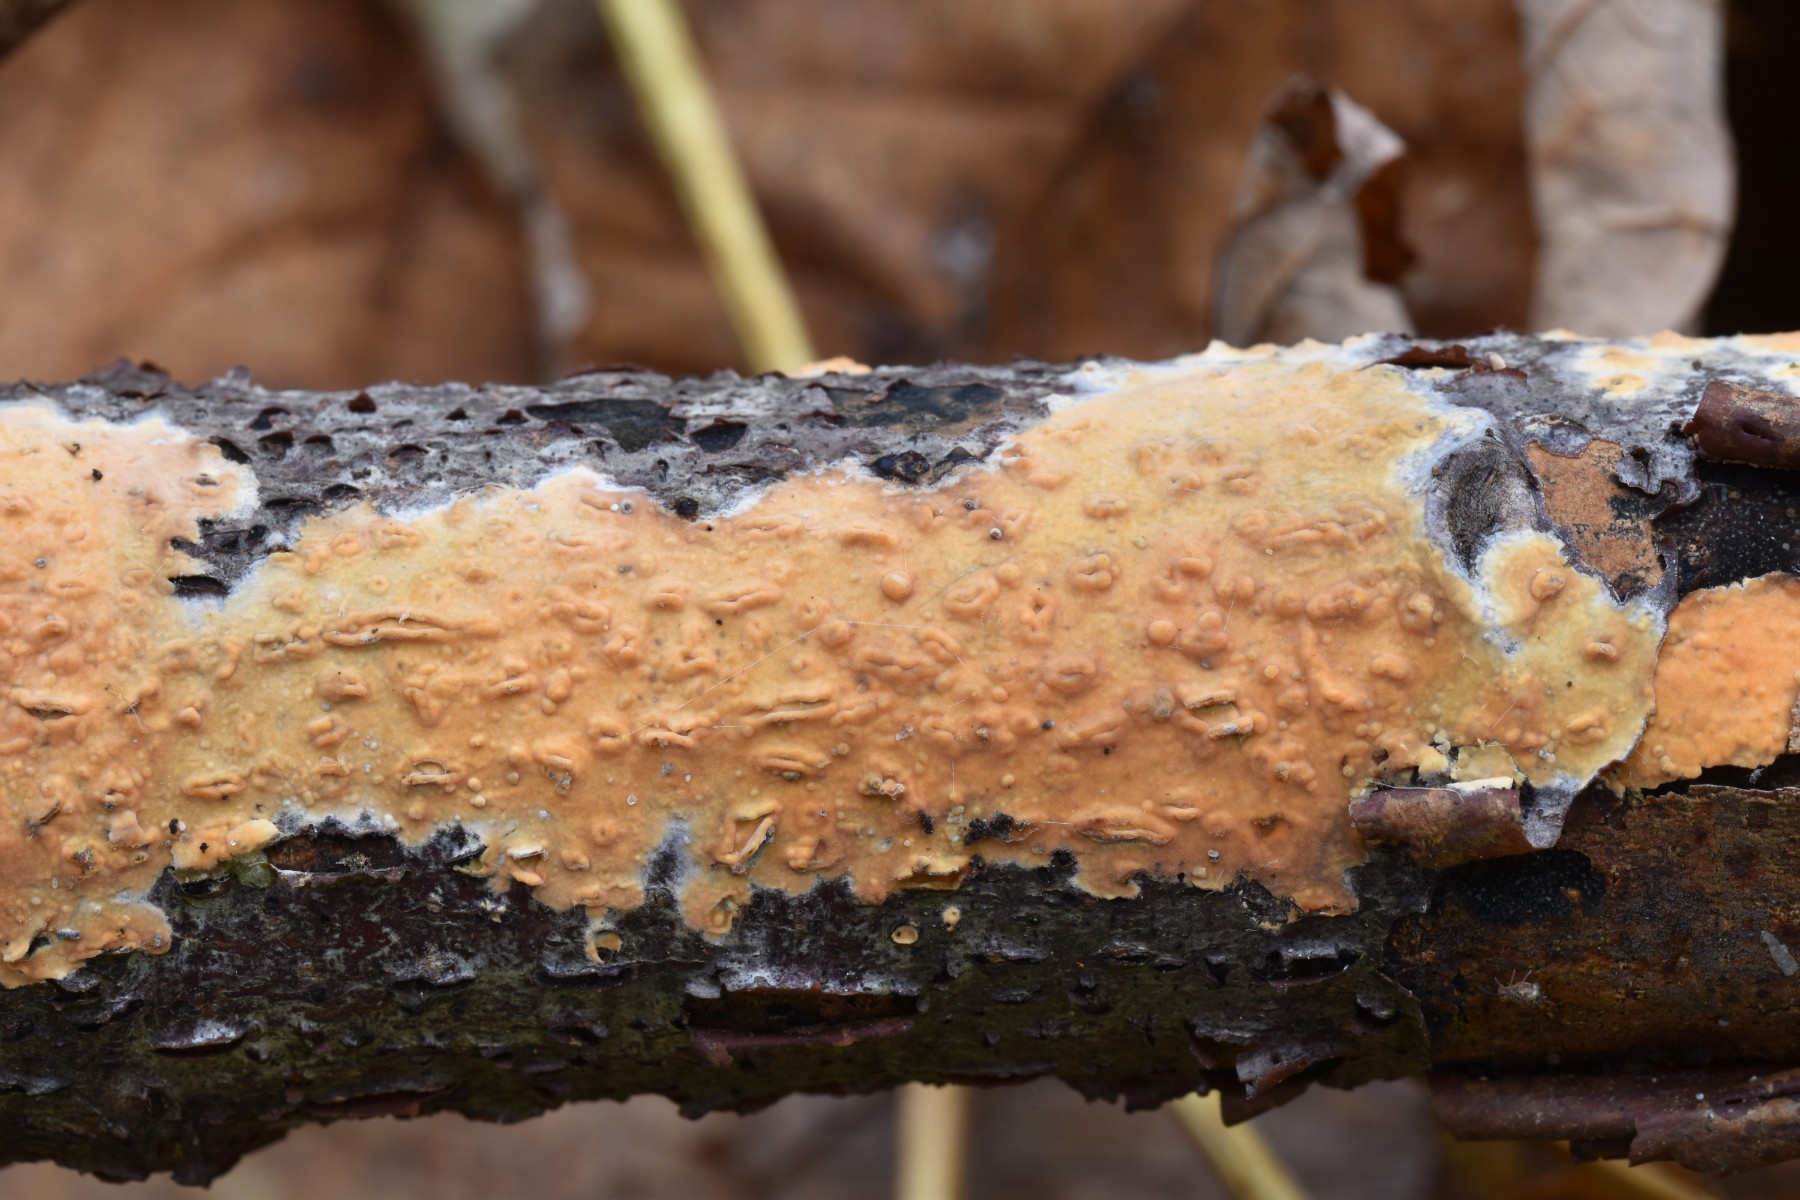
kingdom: Fungi
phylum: Basidiomycota
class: Agaricomycetes
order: Russulales
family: Peniophoraceae
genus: Peniophora
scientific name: Peniophora incarnata
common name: laksefarvet voksskind
